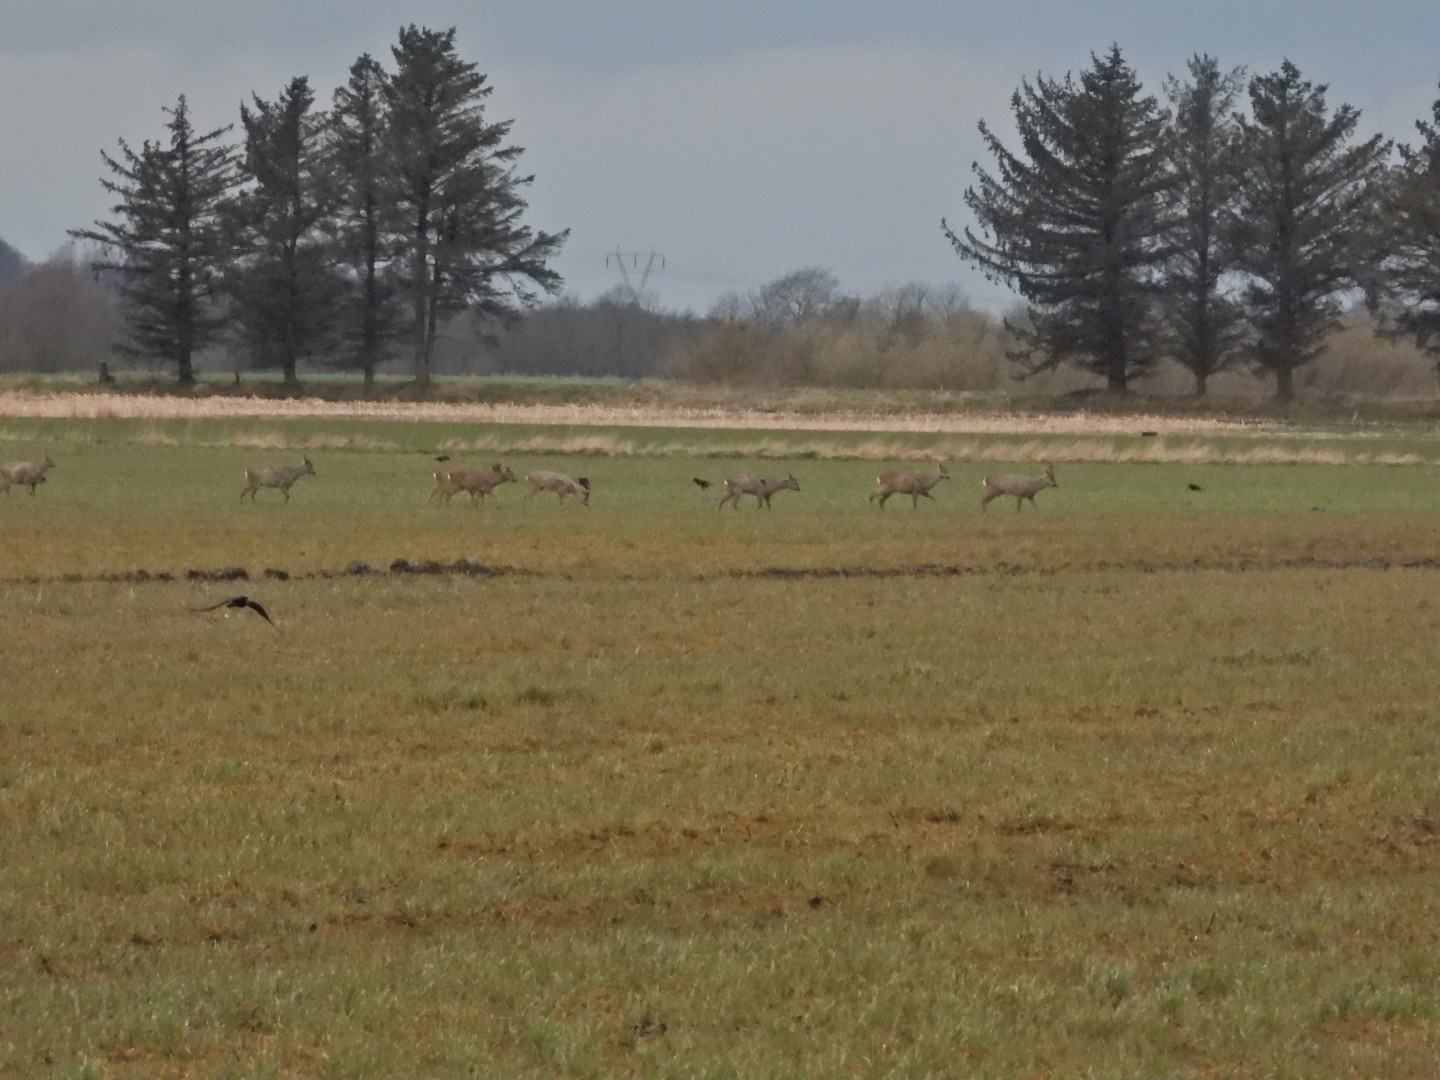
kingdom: Animalia
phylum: Chordata
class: Mammalia
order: Artiodactyla
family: Cervidae
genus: Capreolus
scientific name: Capreolus capreolus
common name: Rådyr
